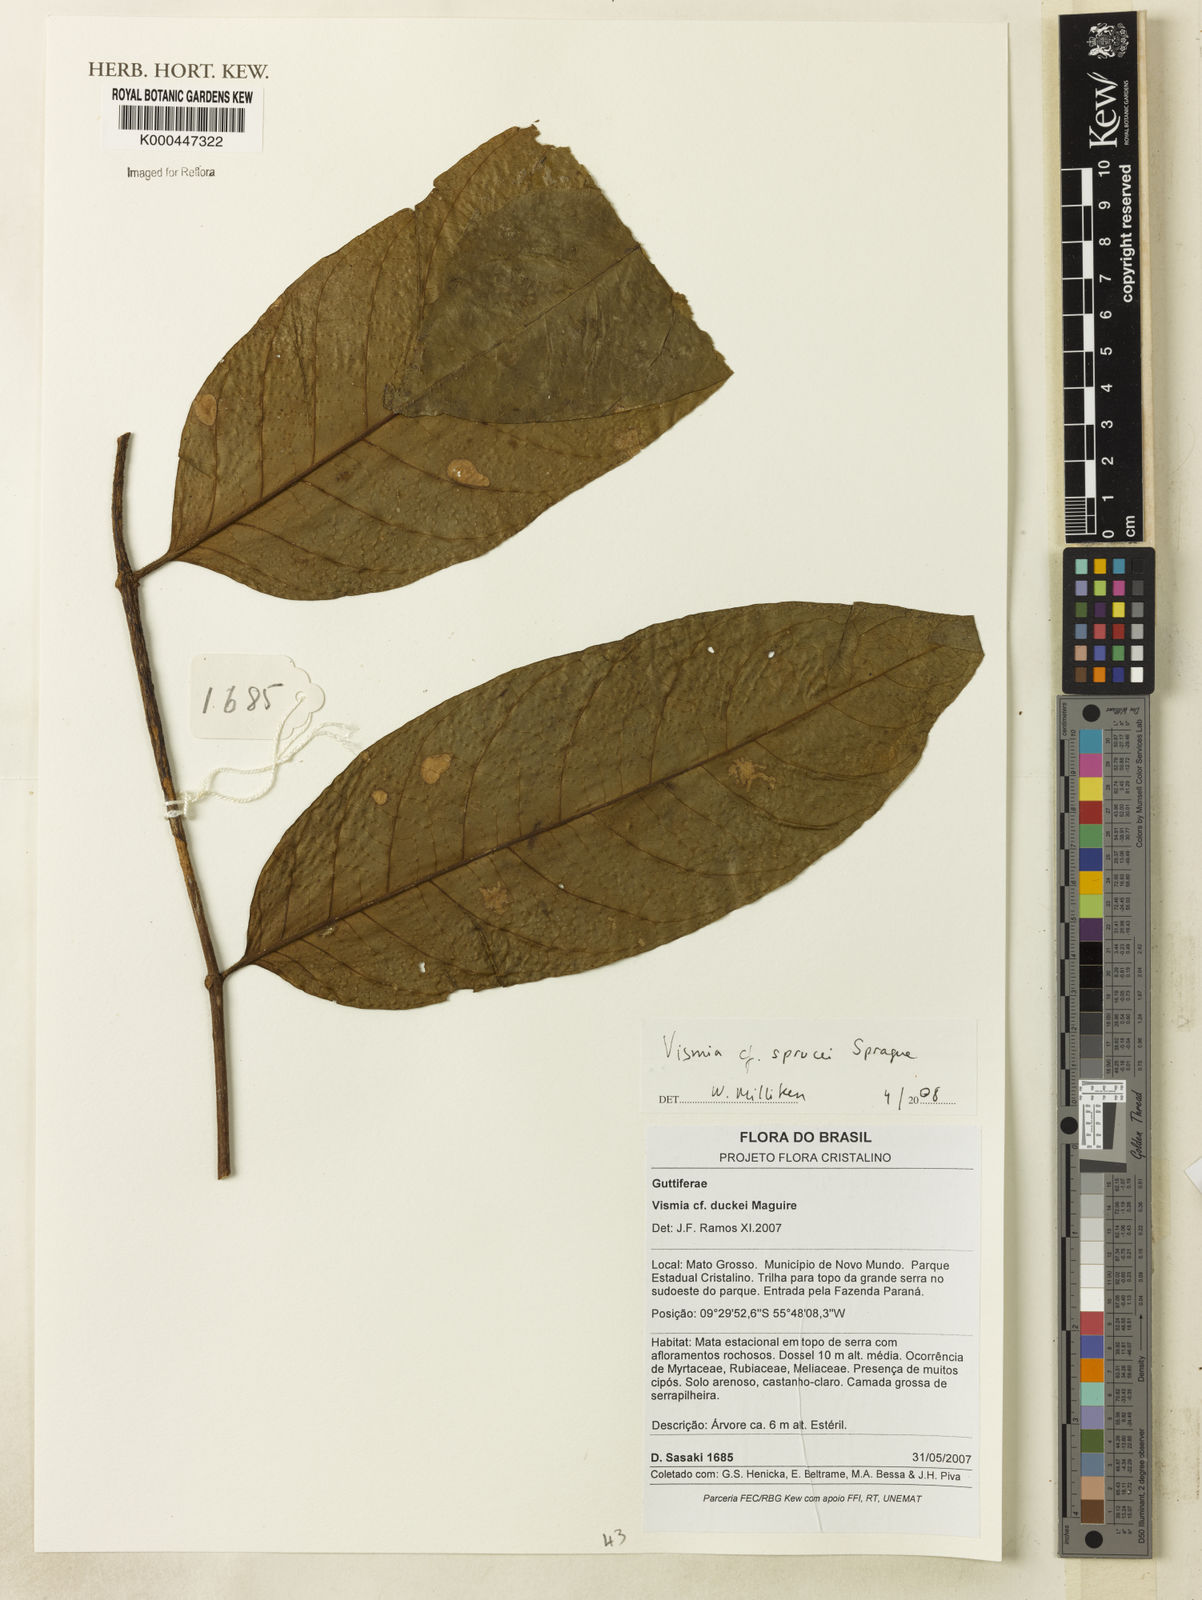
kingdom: Plantae
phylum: Tracheophyta
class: Magnoliopsida
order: Malpighiales
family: Hypericaceae
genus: Vismia
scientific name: Vismia sprucei
